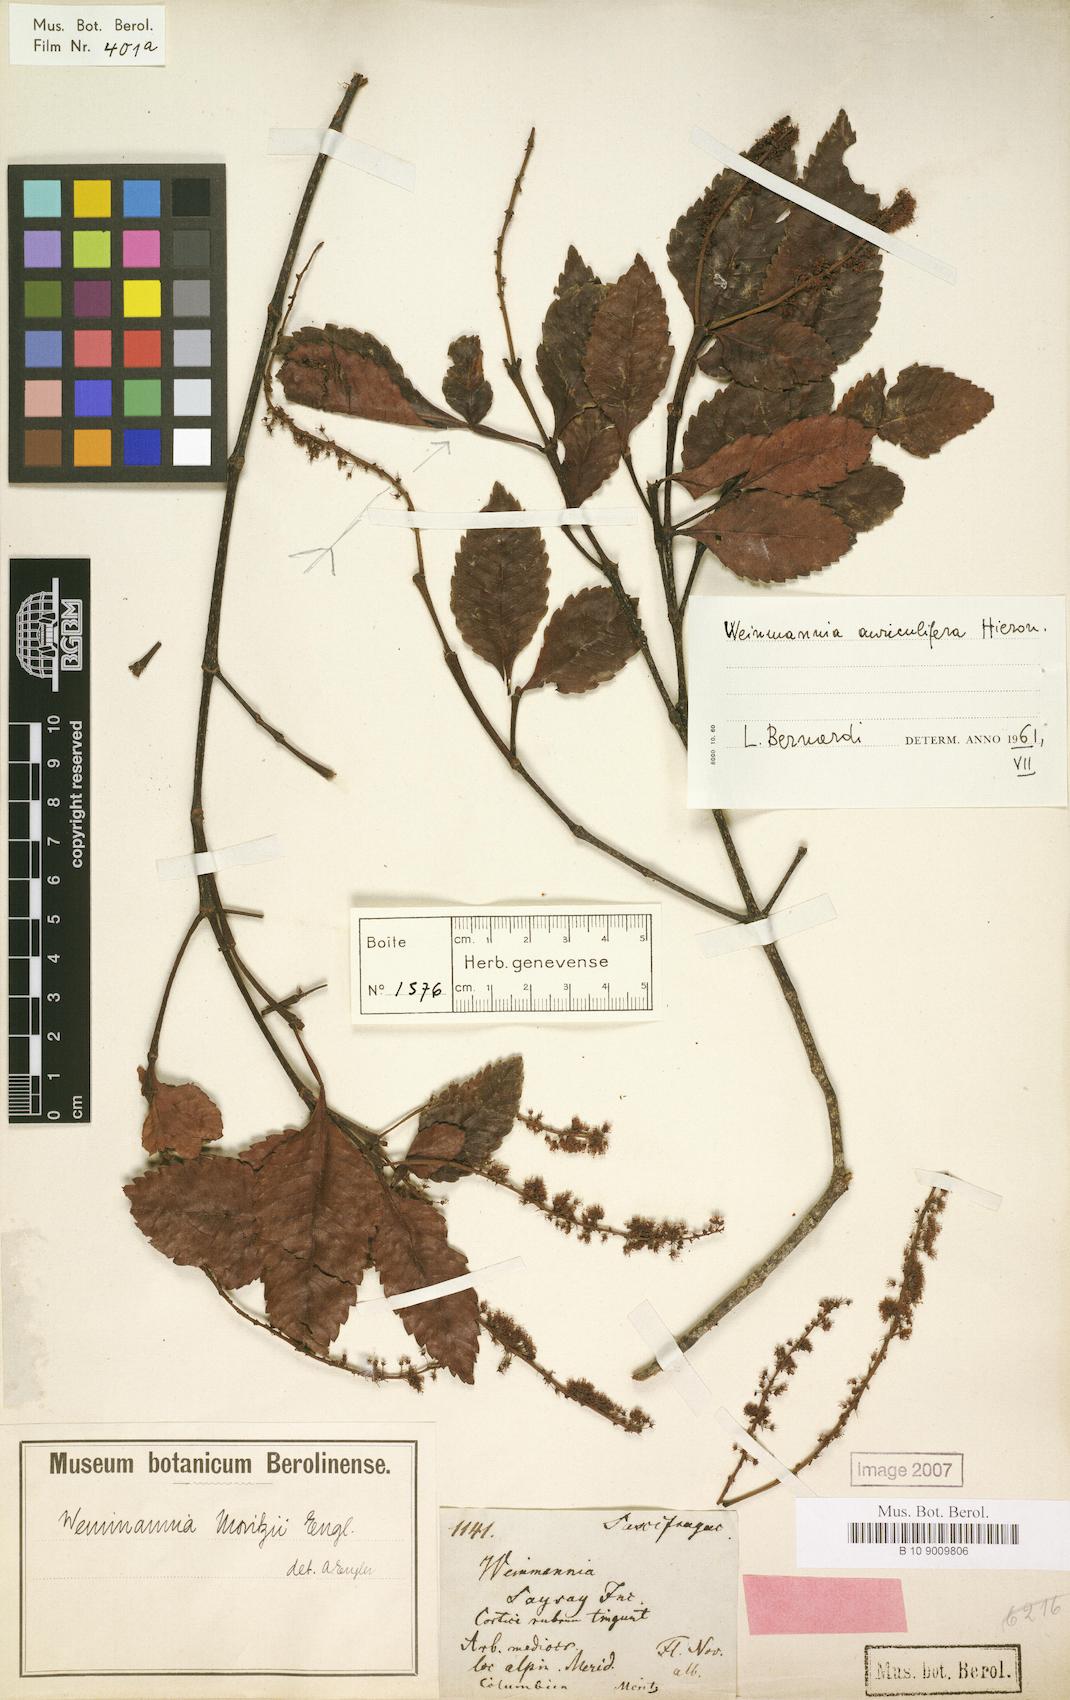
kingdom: Plantae
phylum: Tracheophyta
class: Magnoliopsida
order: Oxalidales
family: Cunoniaceae
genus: Weinmannia
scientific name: Weinmannia heterophylla
